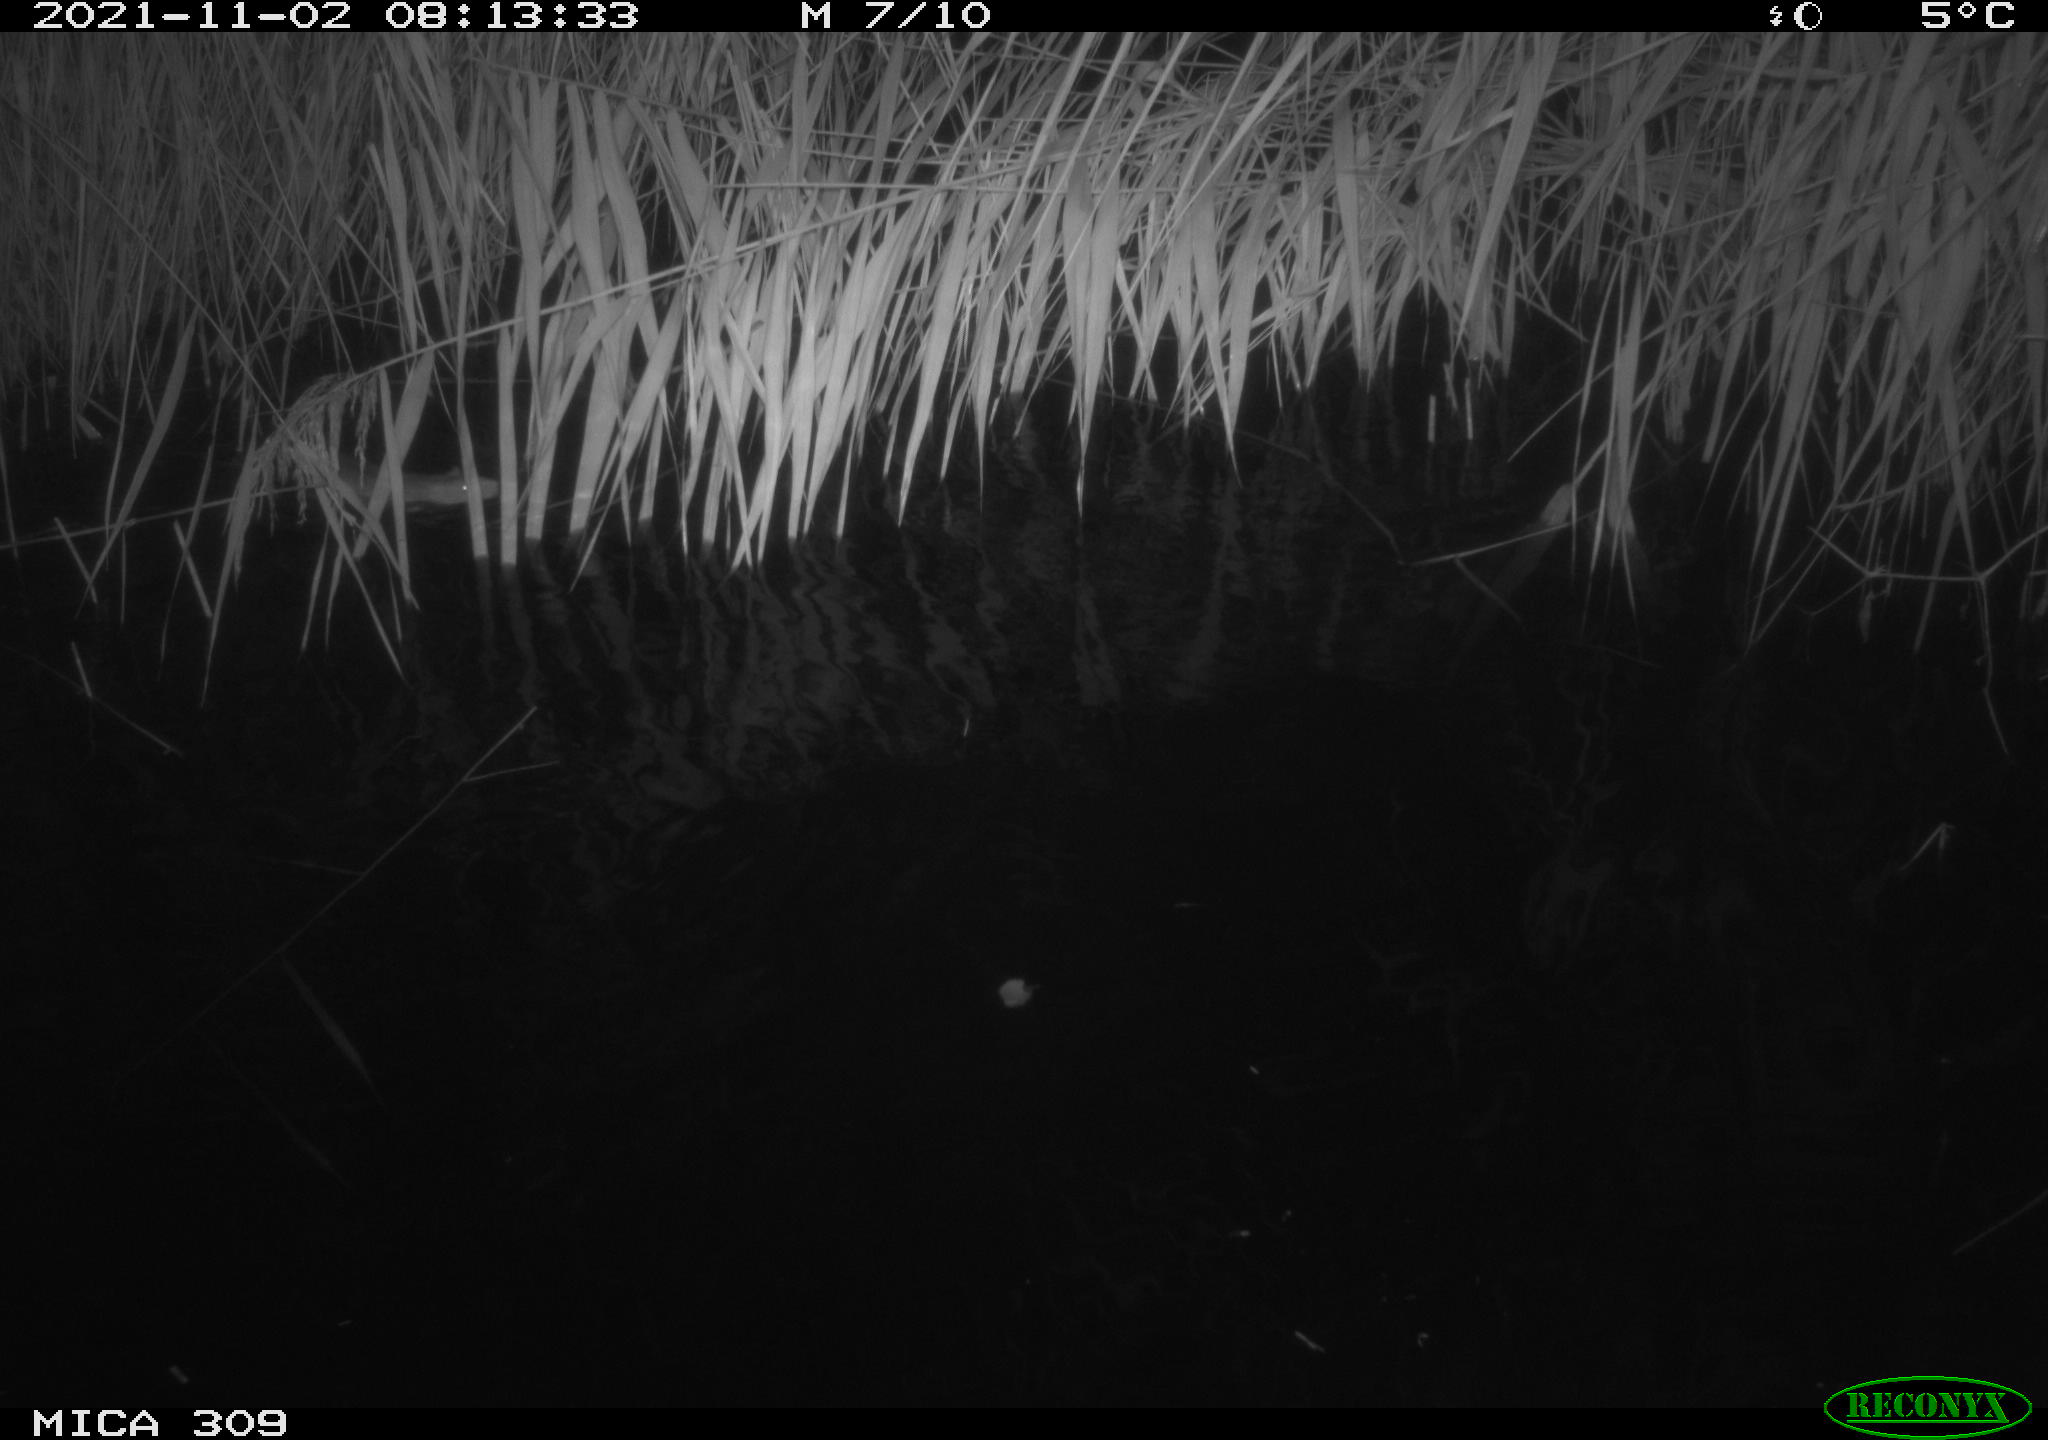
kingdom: Animalia
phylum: Chordata
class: Mammalia
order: Rodentia
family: Muridae
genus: Rattus
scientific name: Rattus norvegicus
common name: Brown rat
